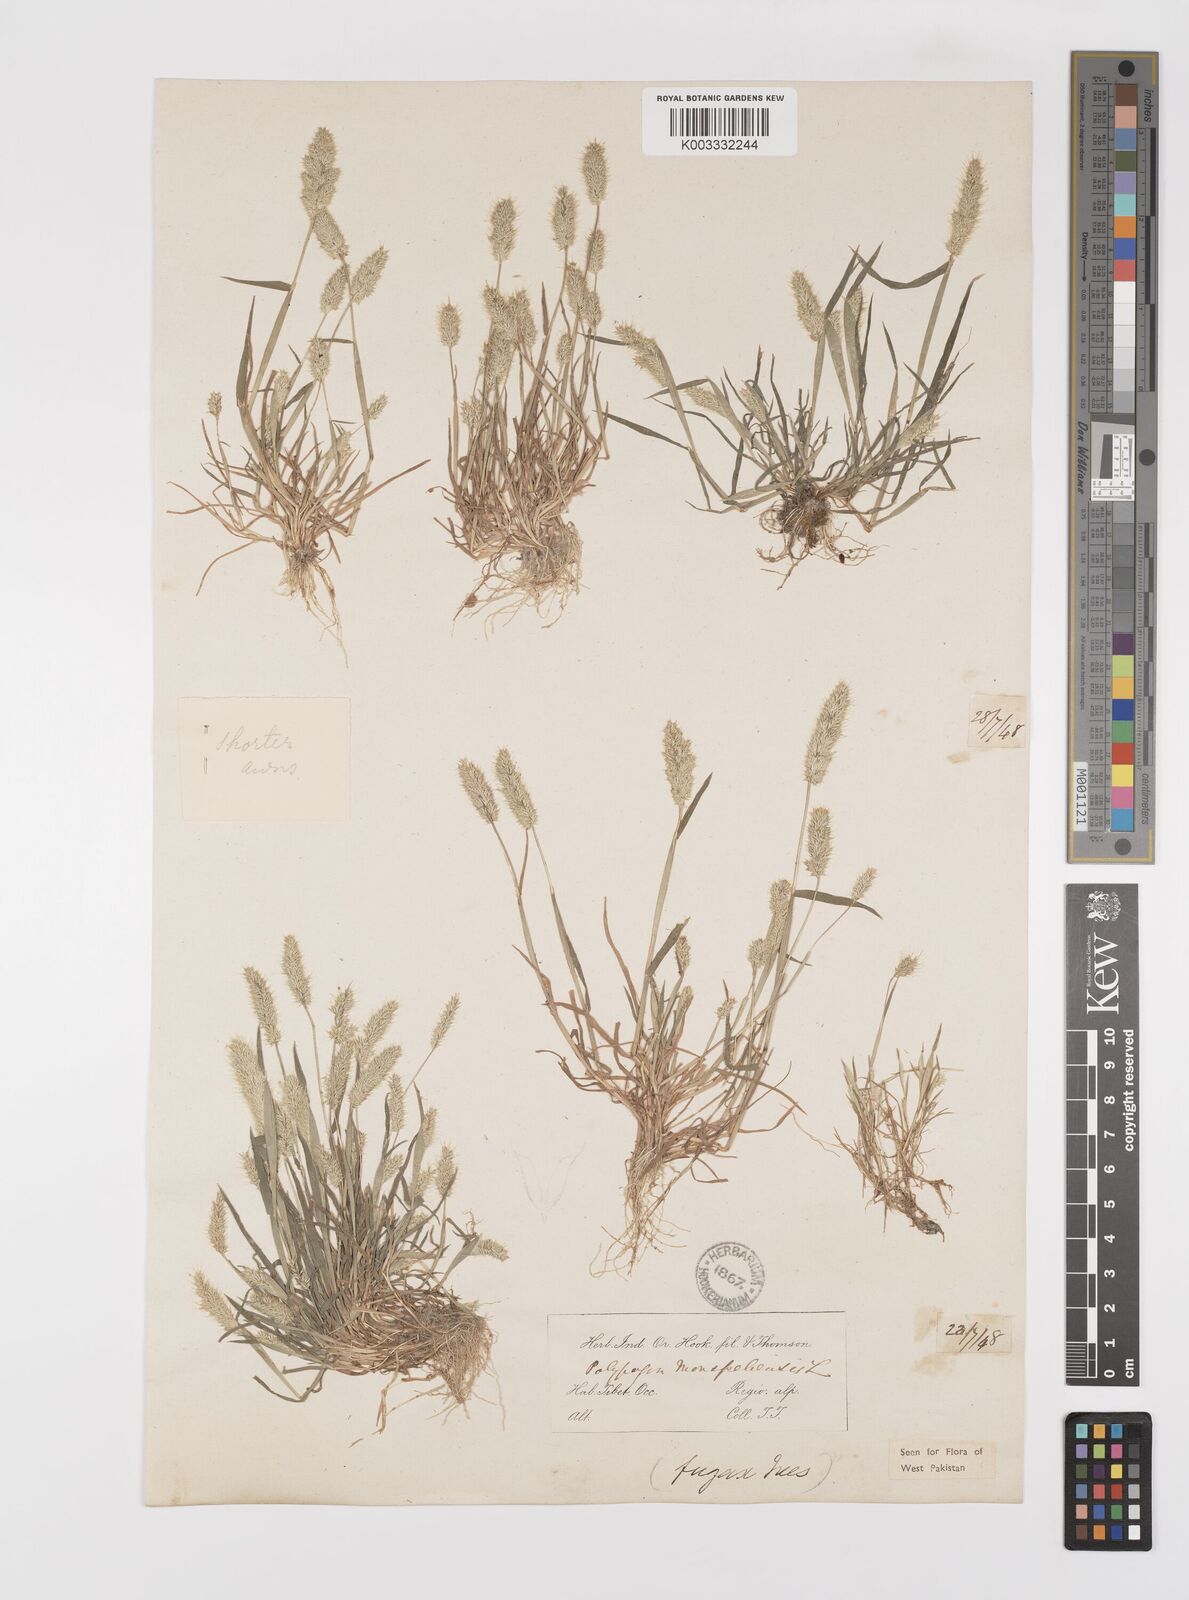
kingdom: Plantae
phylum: Tracheophyta
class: Liliopsida
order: Poales
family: Poaceae
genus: Polypogon
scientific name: Polypogon monspeliensis
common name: Annual rabbitsfoot grass
